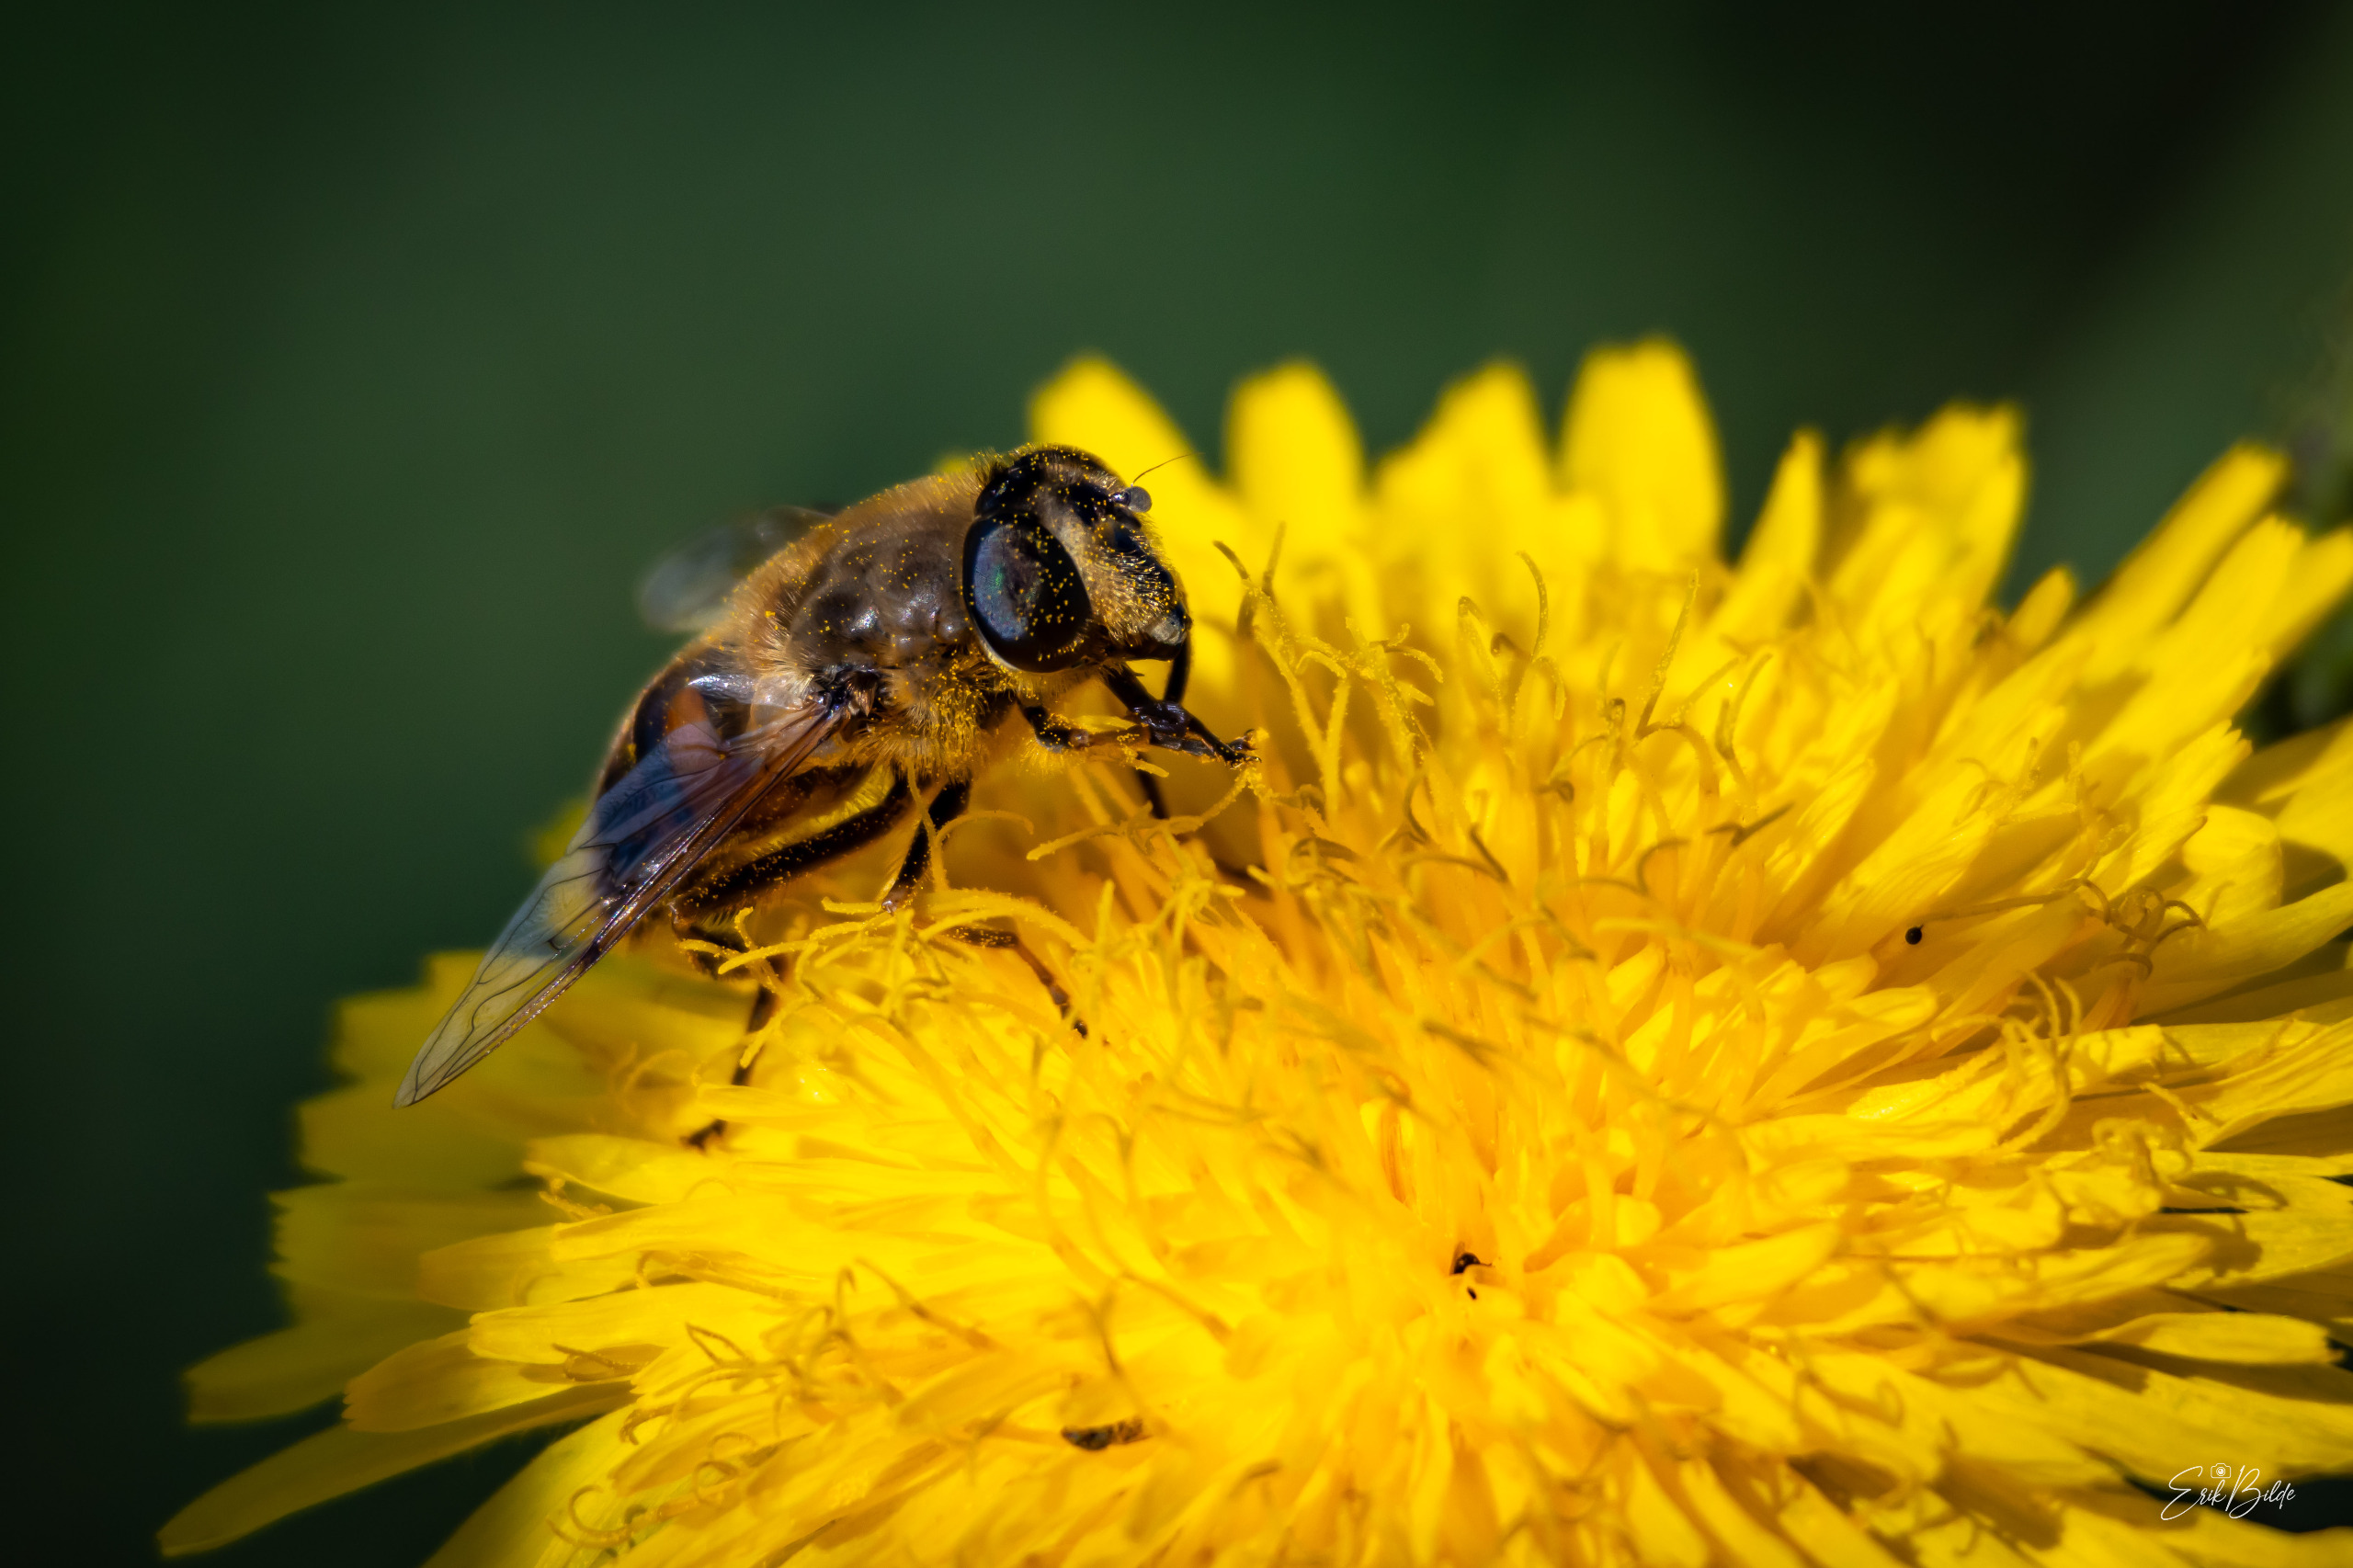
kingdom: Animalia
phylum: Arthropoda
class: Insecta
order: Diptera
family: Syrphidae
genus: Eristalis
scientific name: Eristalis tenax
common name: Droneflue
